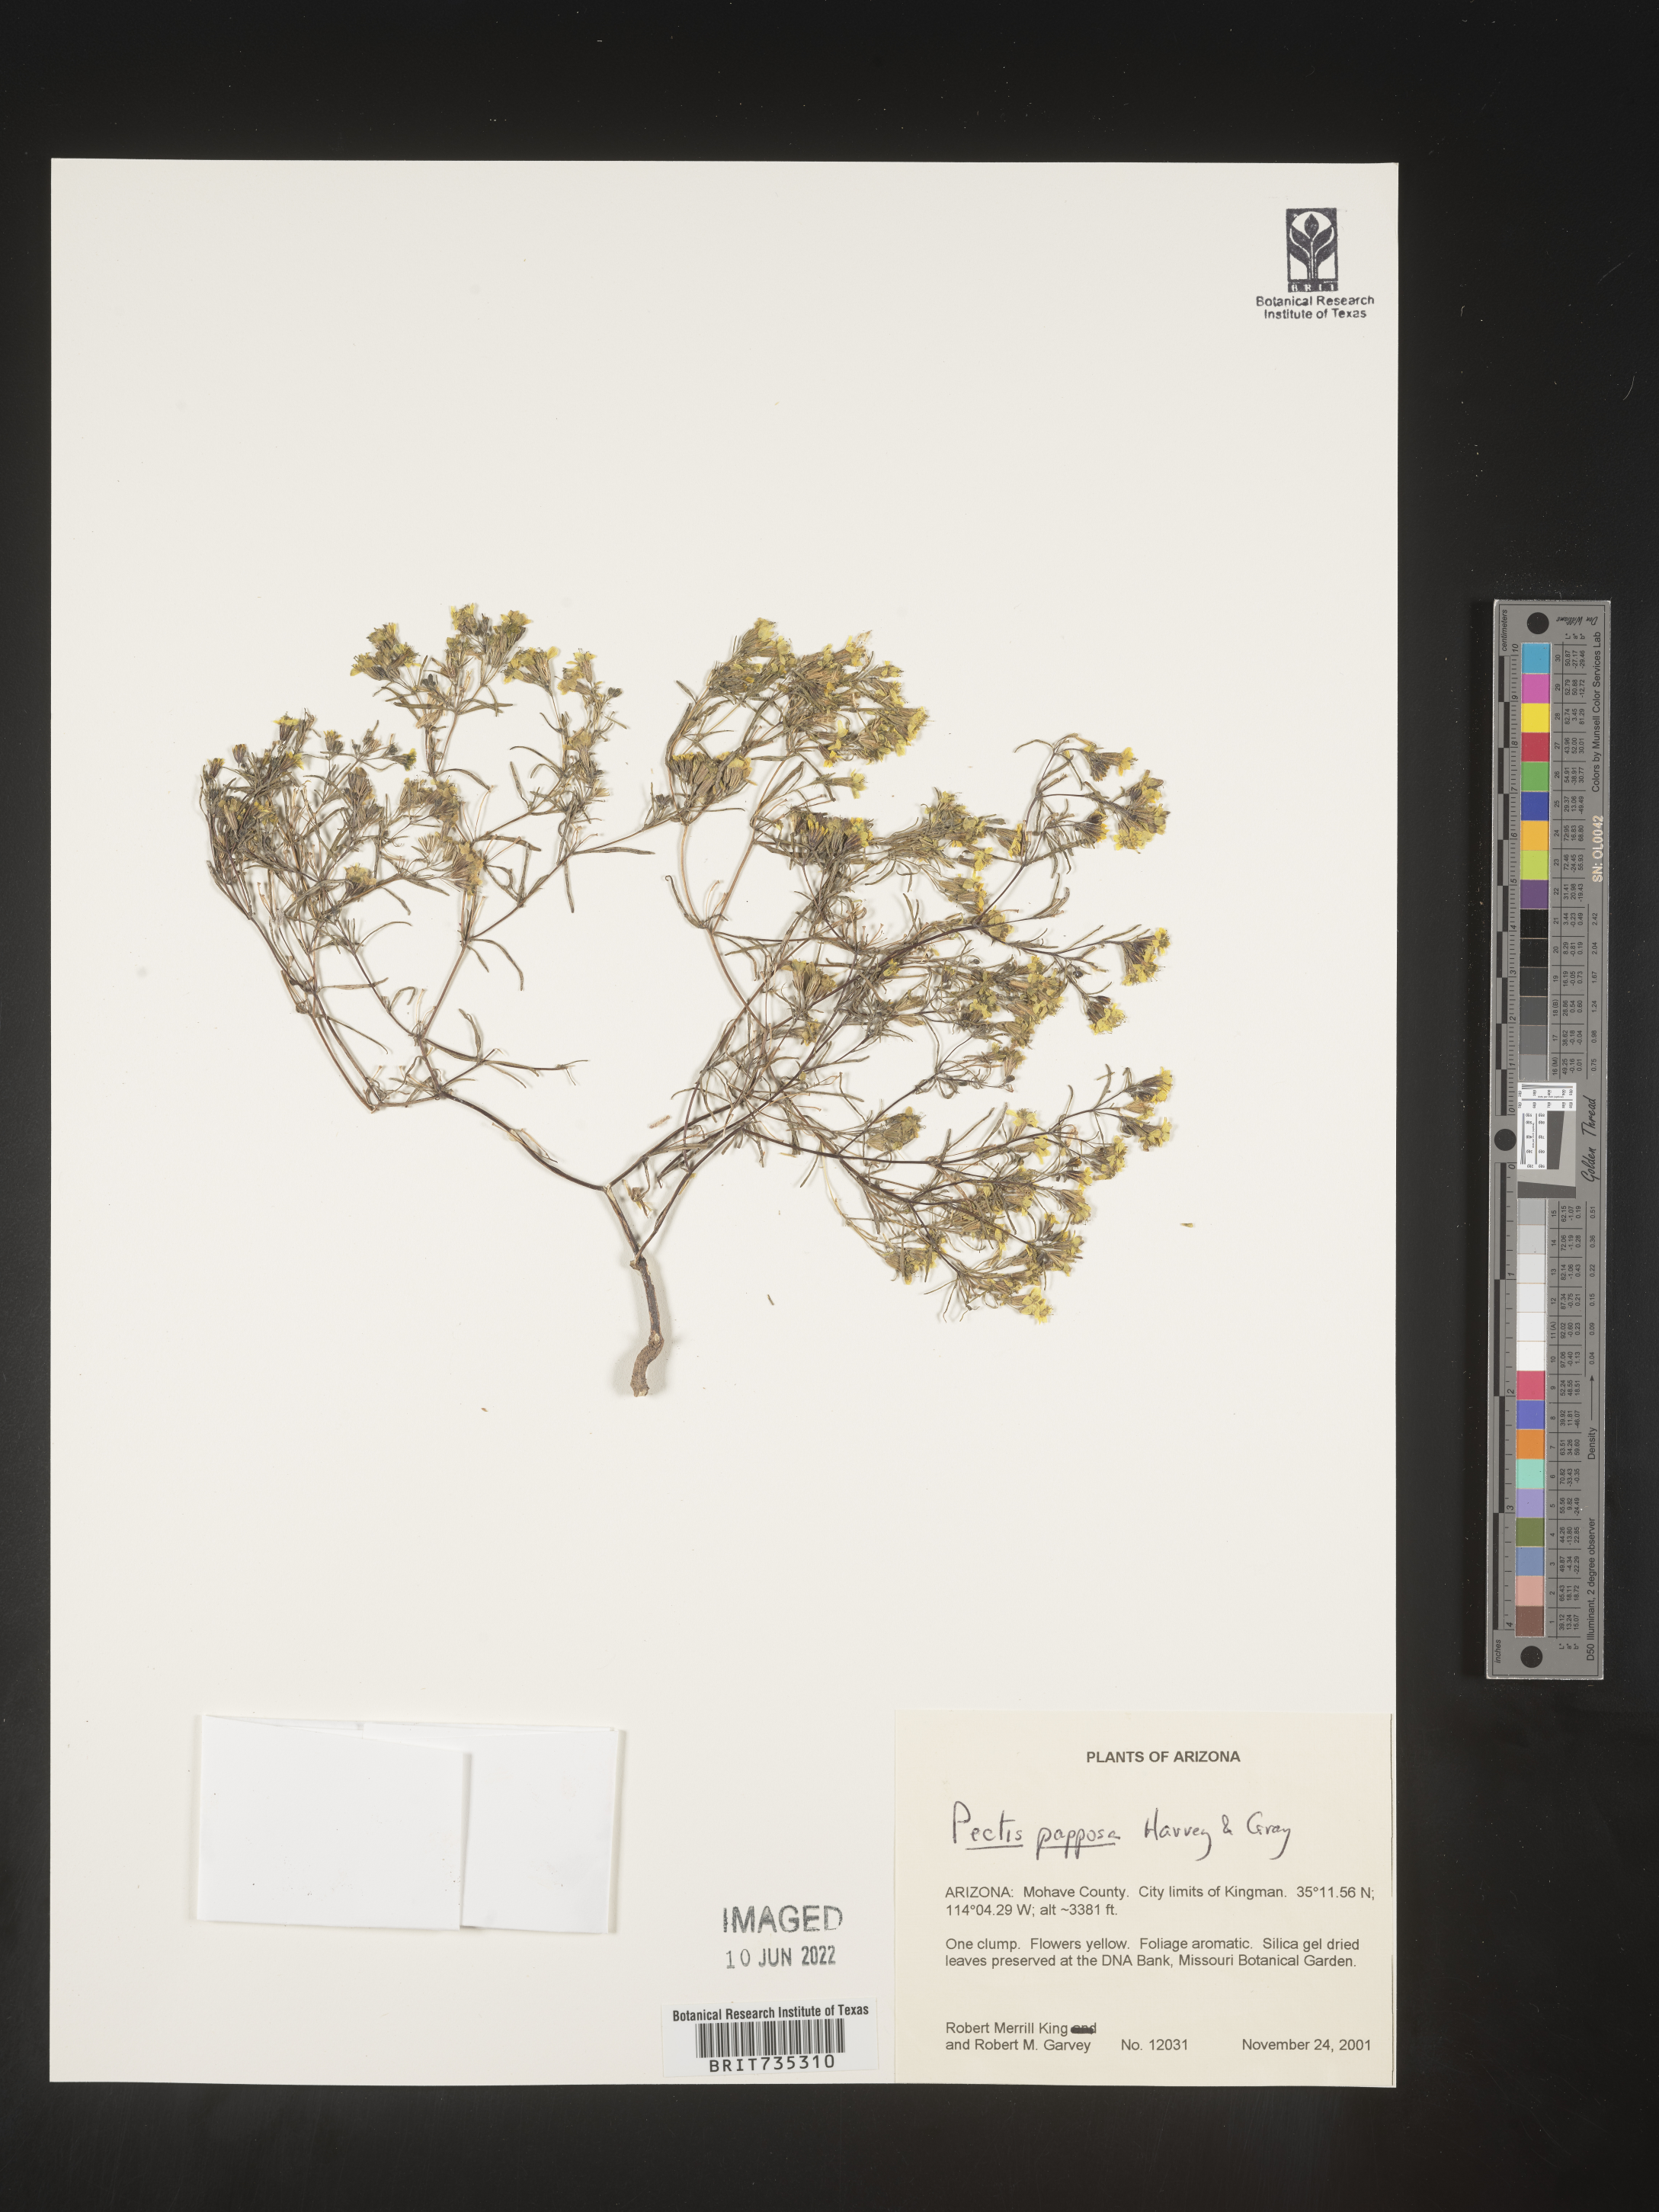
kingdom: Plantae
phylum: Tracheophyta
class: Magnoliopsida
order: Asterales
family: Asteraceae
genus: Pectis
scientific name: Pectis papposa
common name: Many-bristle chinchweed
